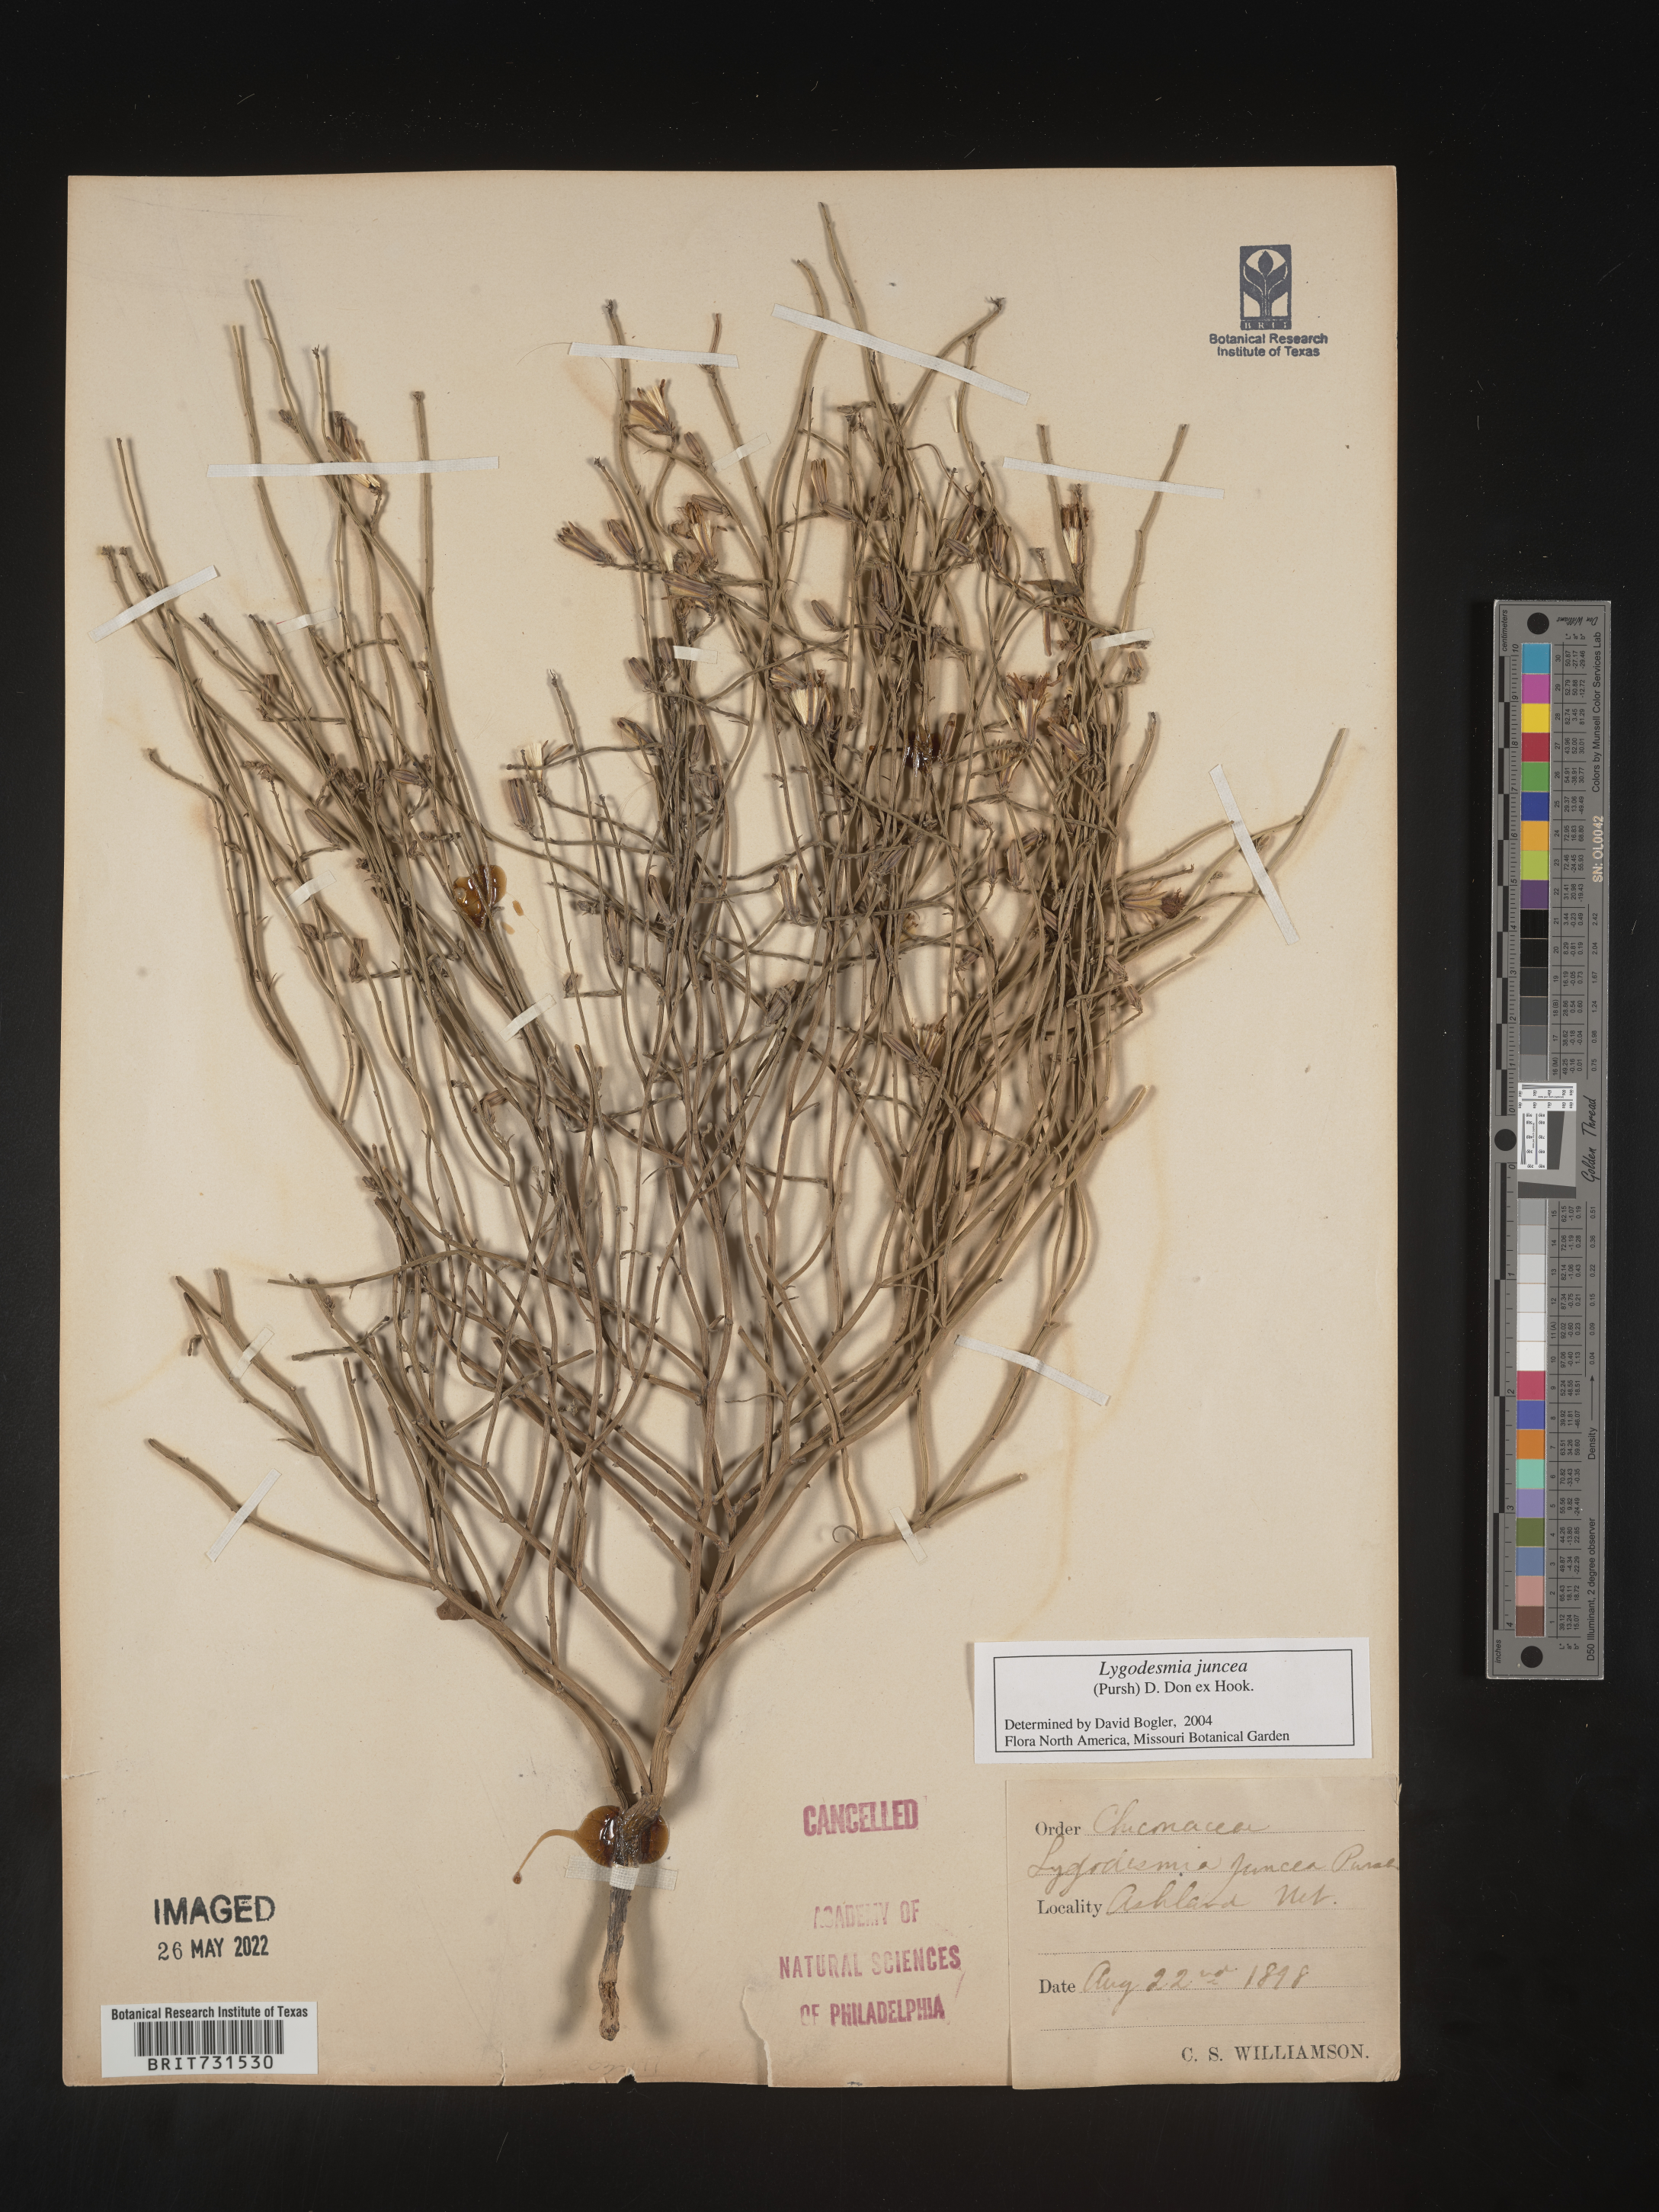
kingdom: Plantae
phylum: Tracheophyta
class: Magnoliopsida
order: Asterales
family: Asteraceae
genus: Lygodesmia
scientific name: Lygodesmia juncea
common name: Common skeletonweed
